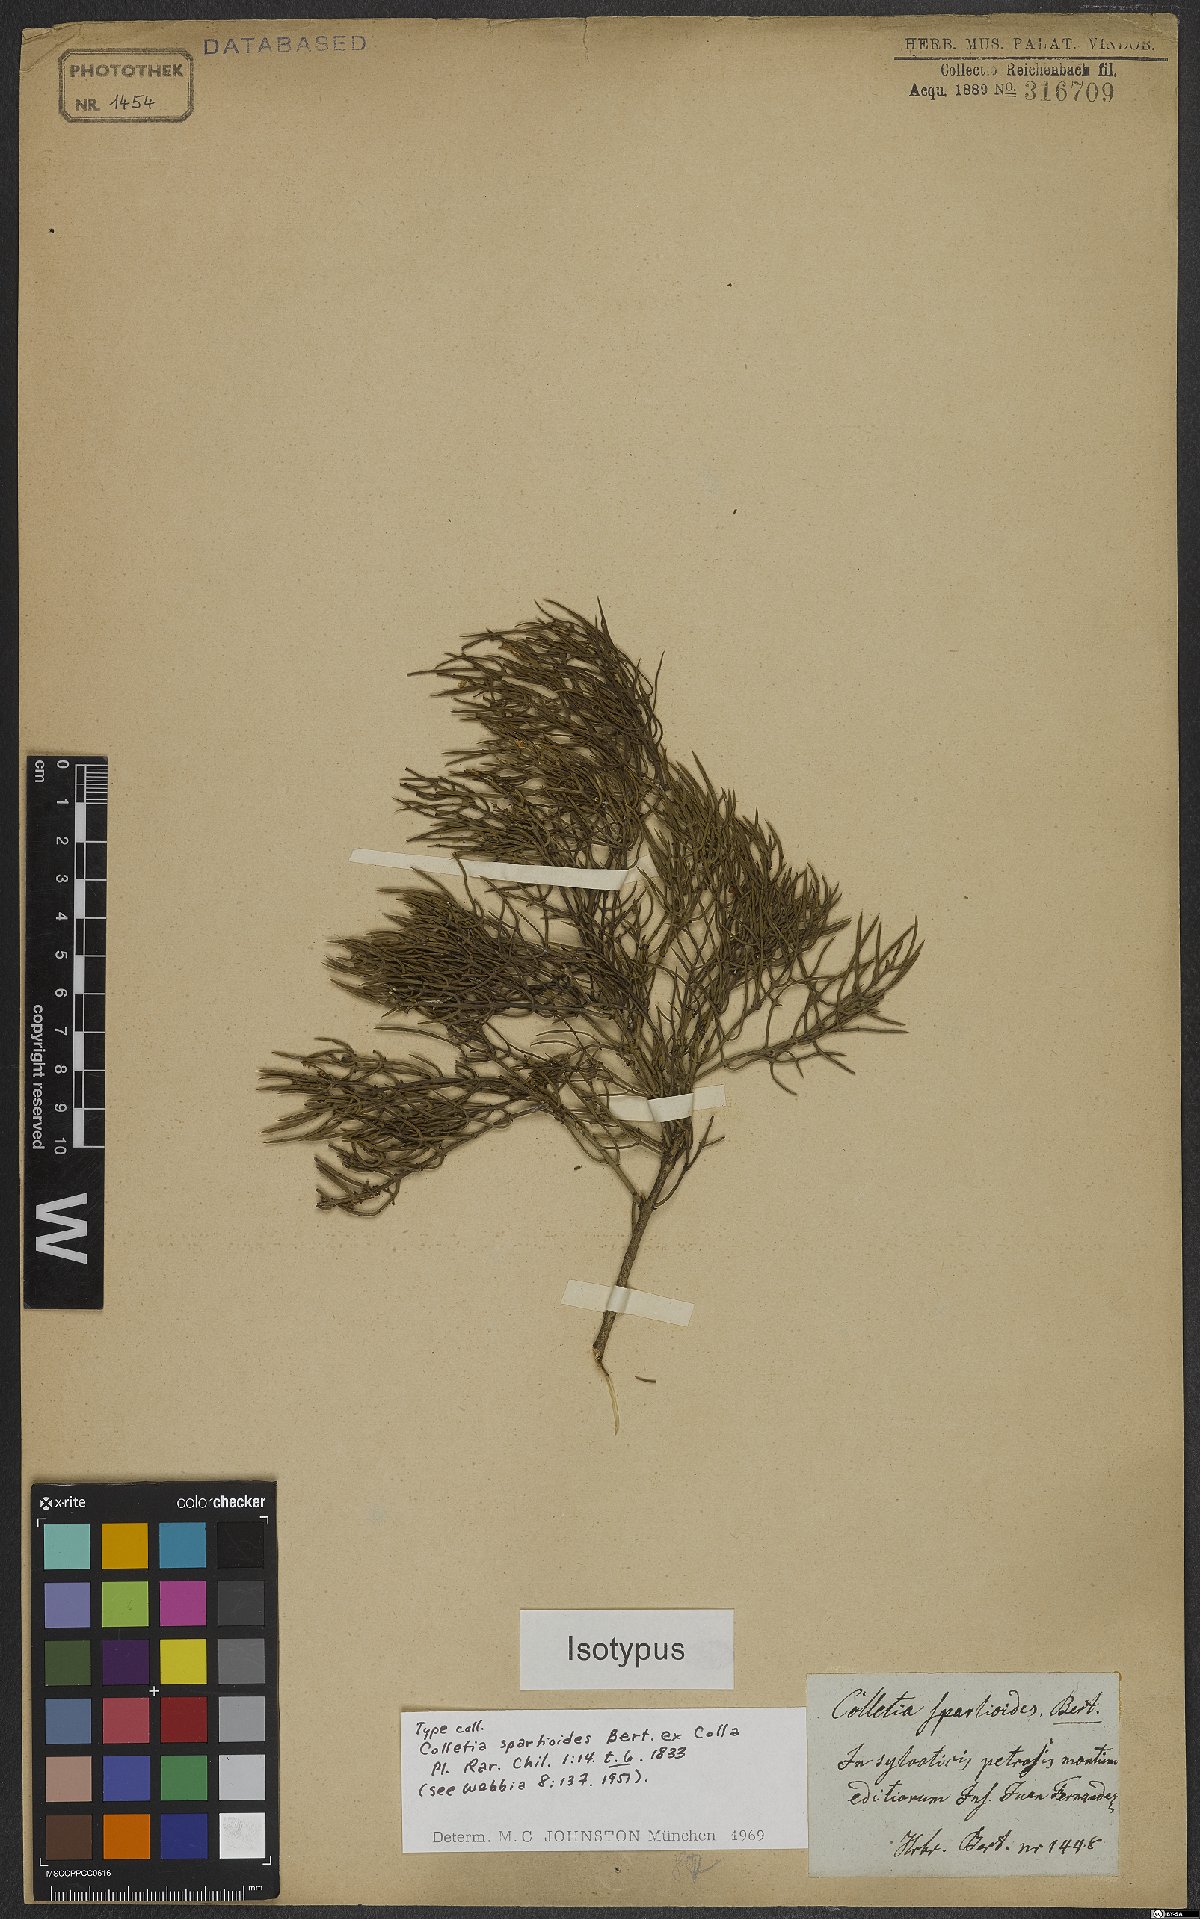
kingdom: Plantae
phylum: Tracheophyta
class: Magnoliopsida
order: Rosales
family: Rhamnaceae
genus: Colletia
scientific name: Colletia spartioides
